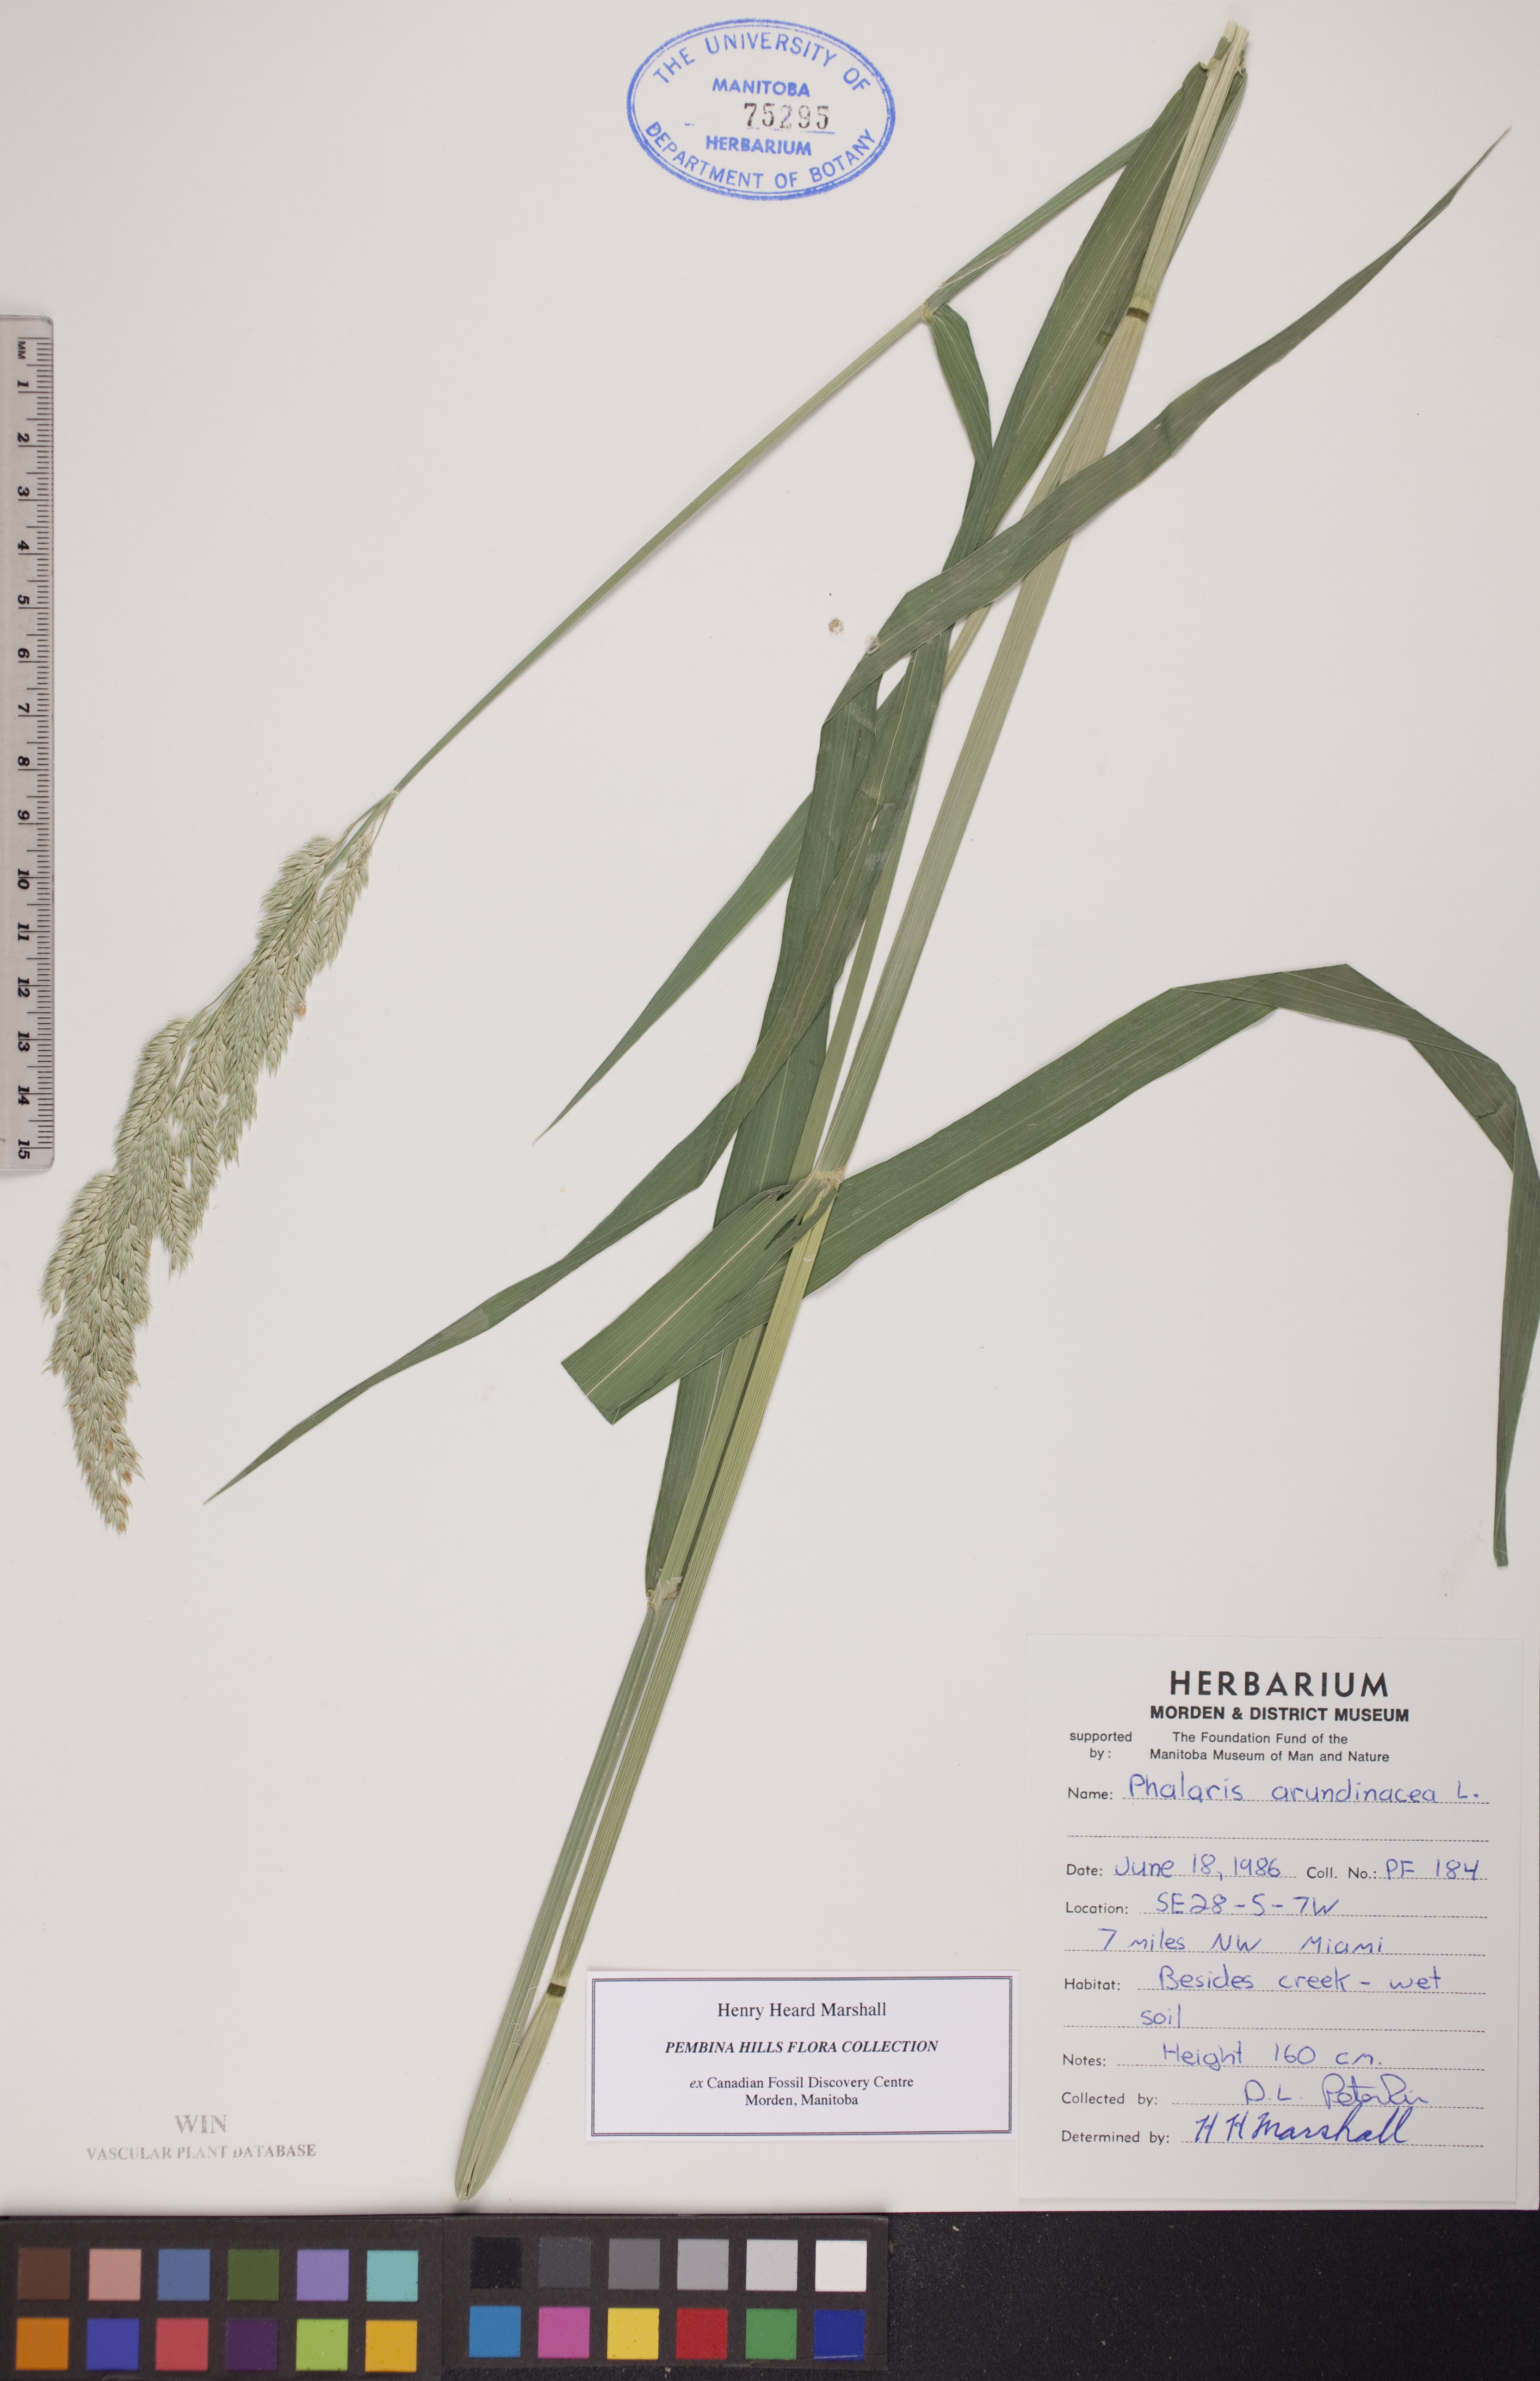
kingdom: Plantae
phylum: Tracheophyta
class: Liliopsida
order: Poales
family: Poaceae
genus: Phalaris
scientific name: Phalaris arundinacea
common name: Reed canary-grass
